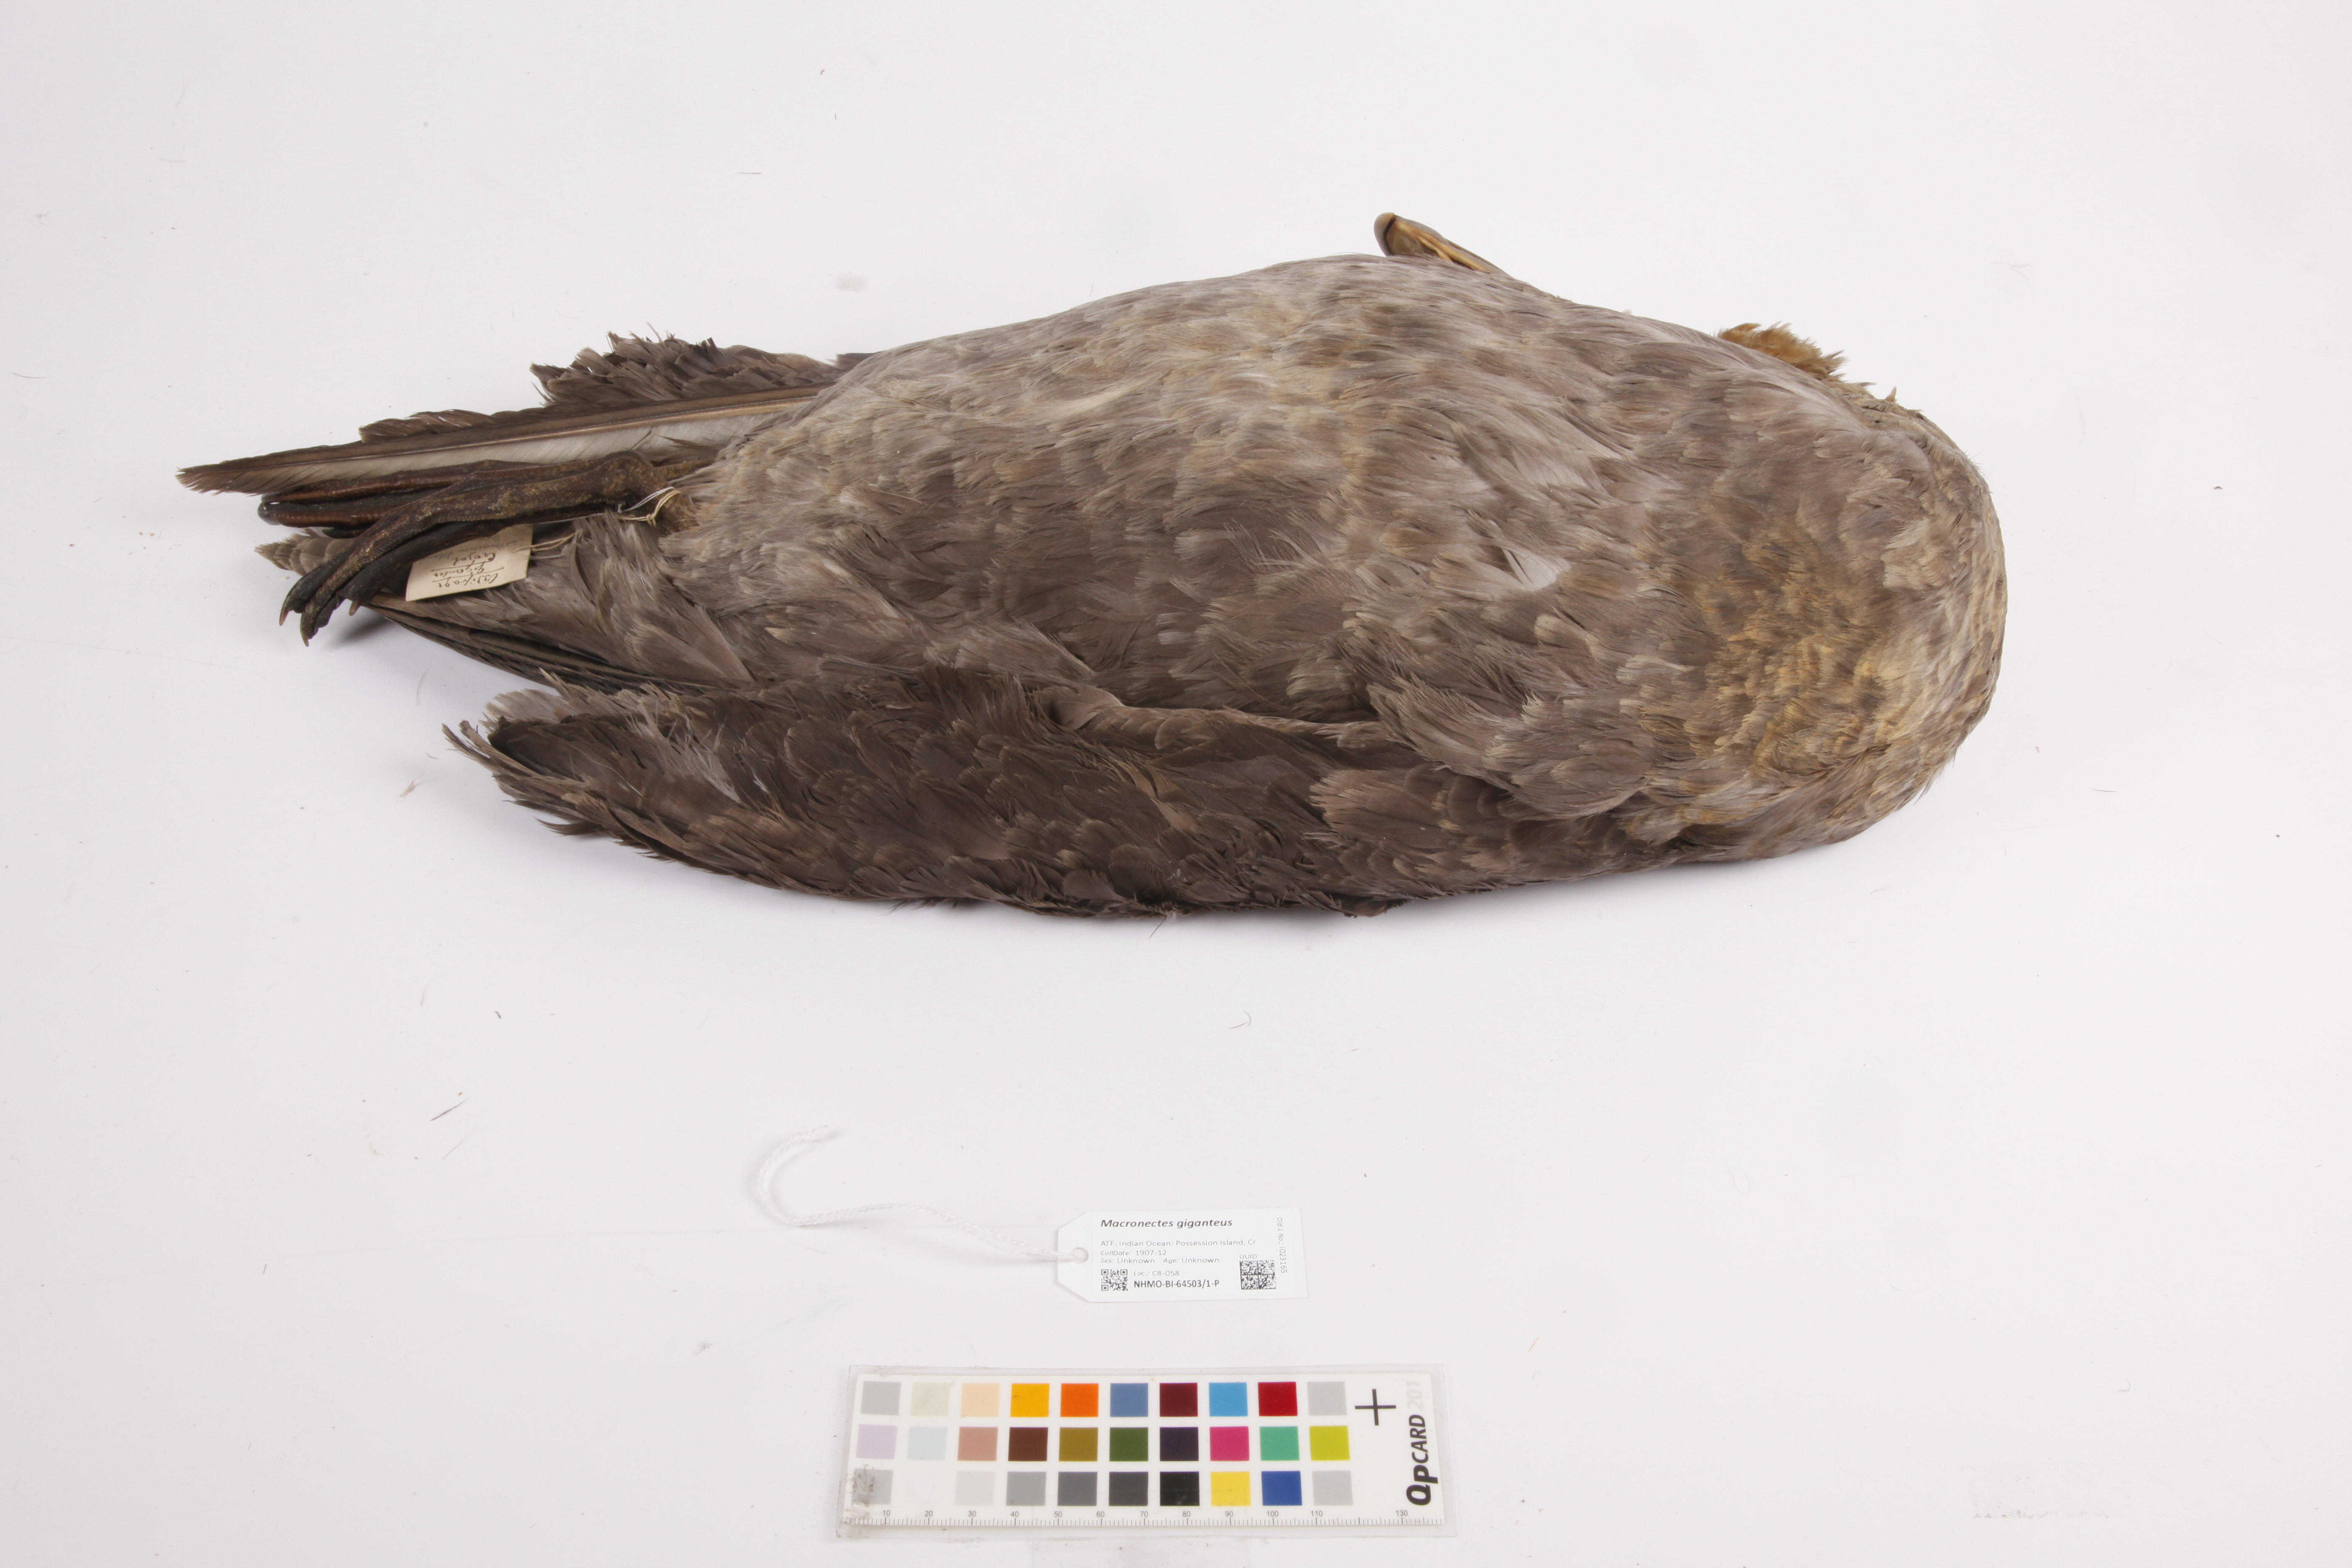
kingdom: Animalia
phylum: Chordata
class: Aves
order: Procellariiformes
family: Procellariidae
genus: Macronectes
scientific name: Macronectes giganteus
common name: Southern giant petrel
